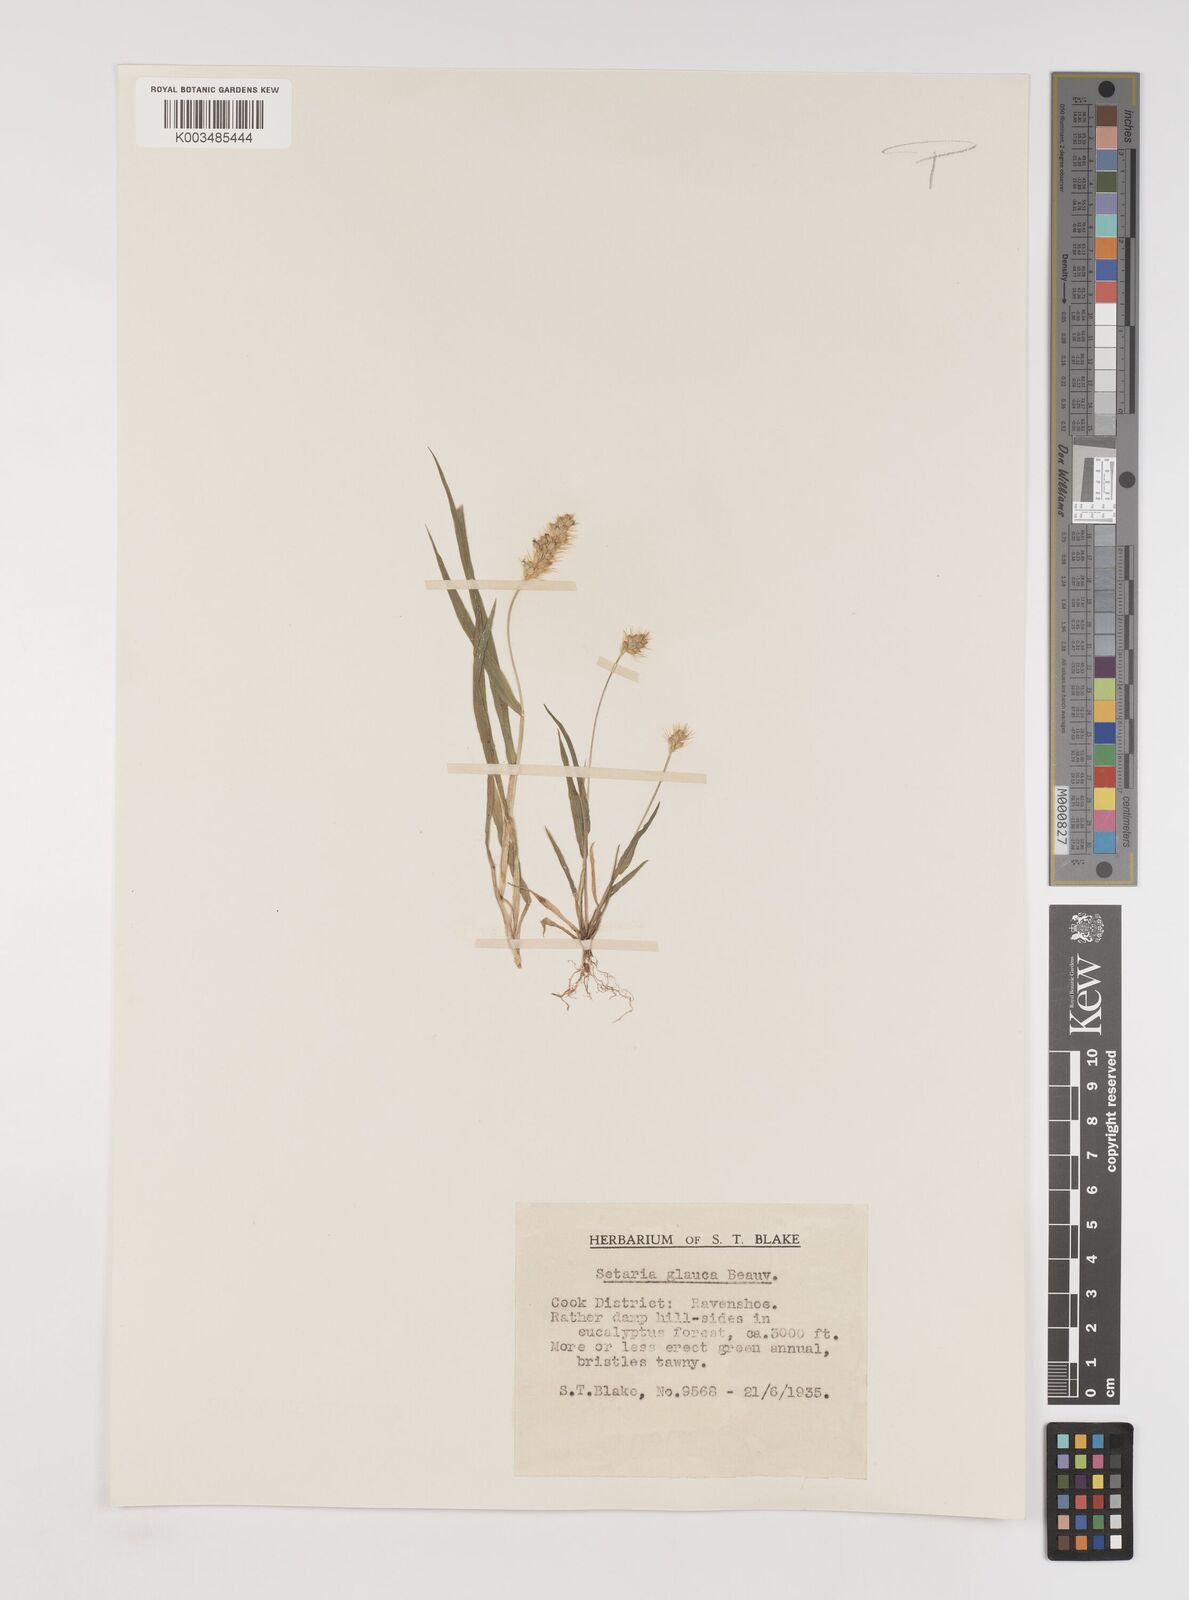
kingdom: Plantae
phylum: Tracheophyta
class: Liliopsida
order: Poales
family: Poaceae
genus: Setaria
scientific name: Setaria pumila
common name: Yellow bristle-grass
